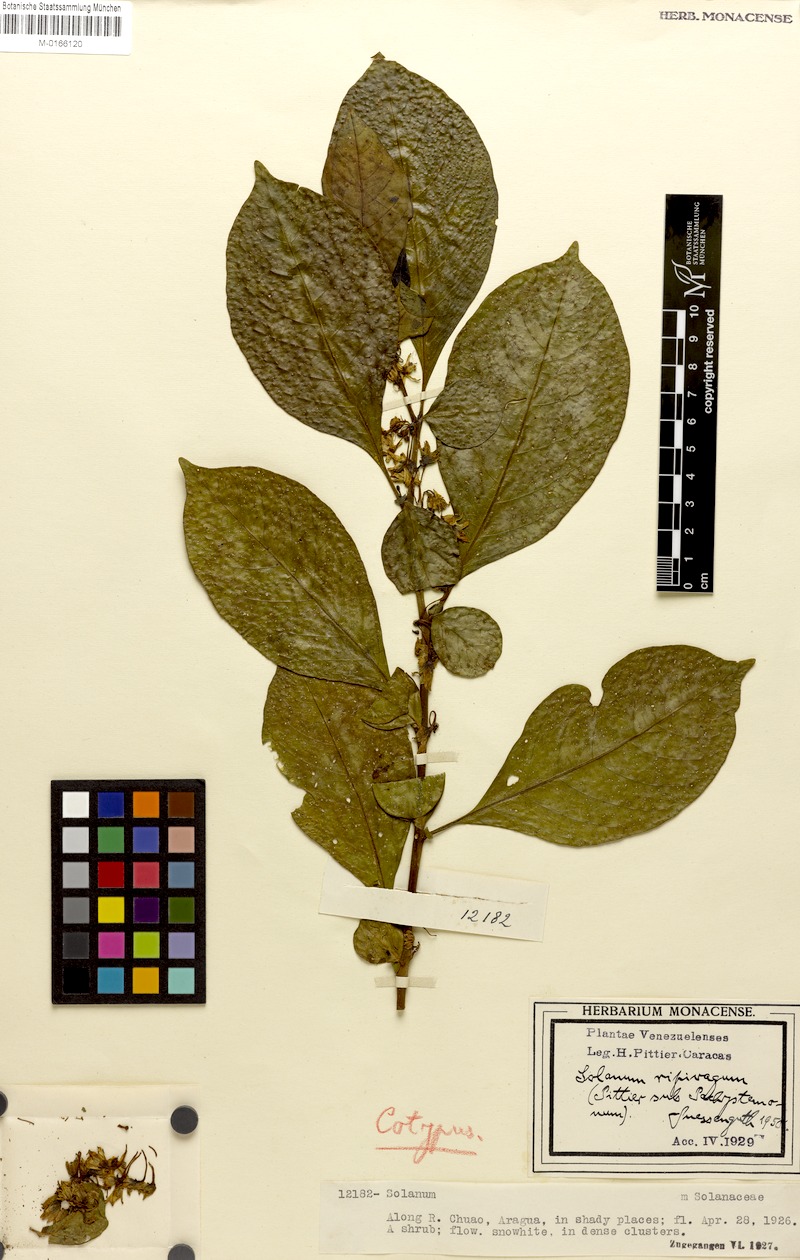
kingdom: Plantae
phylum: Tracheophyta
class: Magnoliopsida
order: Solanales
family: Solanaceae
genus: Solanum
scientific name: Solanum arboreum
